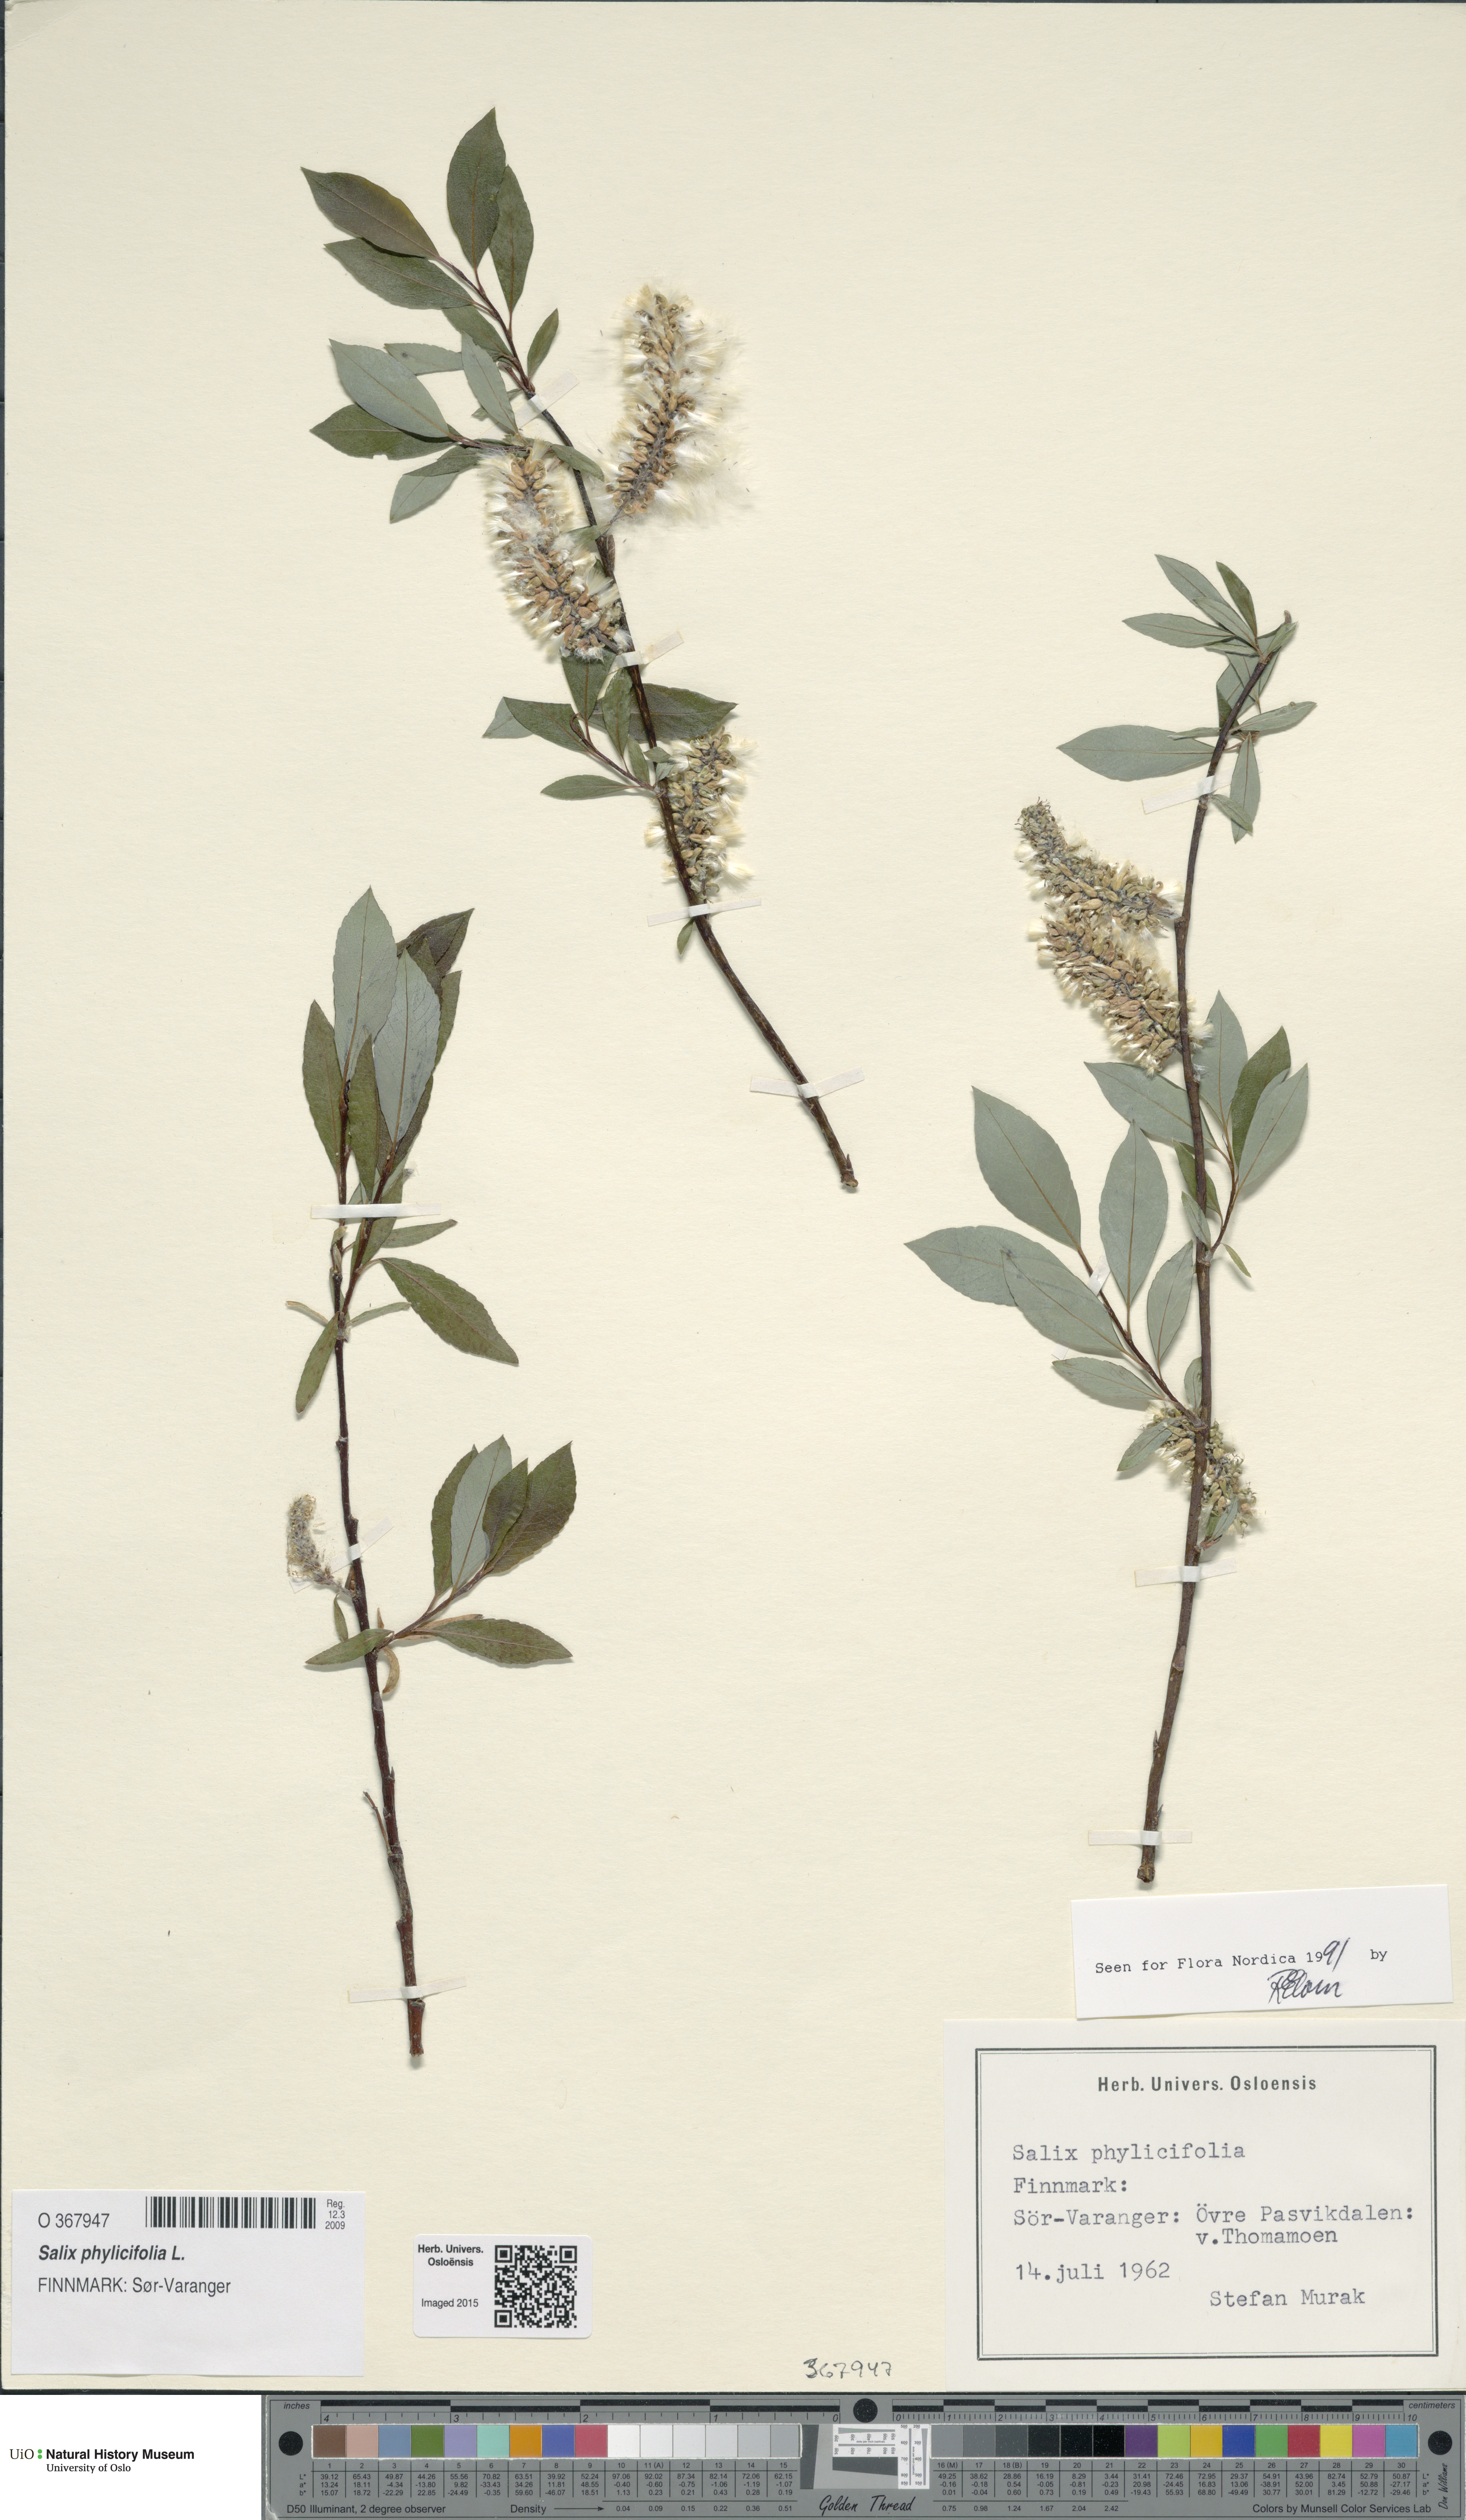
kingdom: Plantae
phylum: Tracheophyta
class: Magnoliopsida
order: Malpighiales
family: Salicaceae
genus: Salix
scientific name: Salix phylicifolia
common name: Tea-leaved willow
